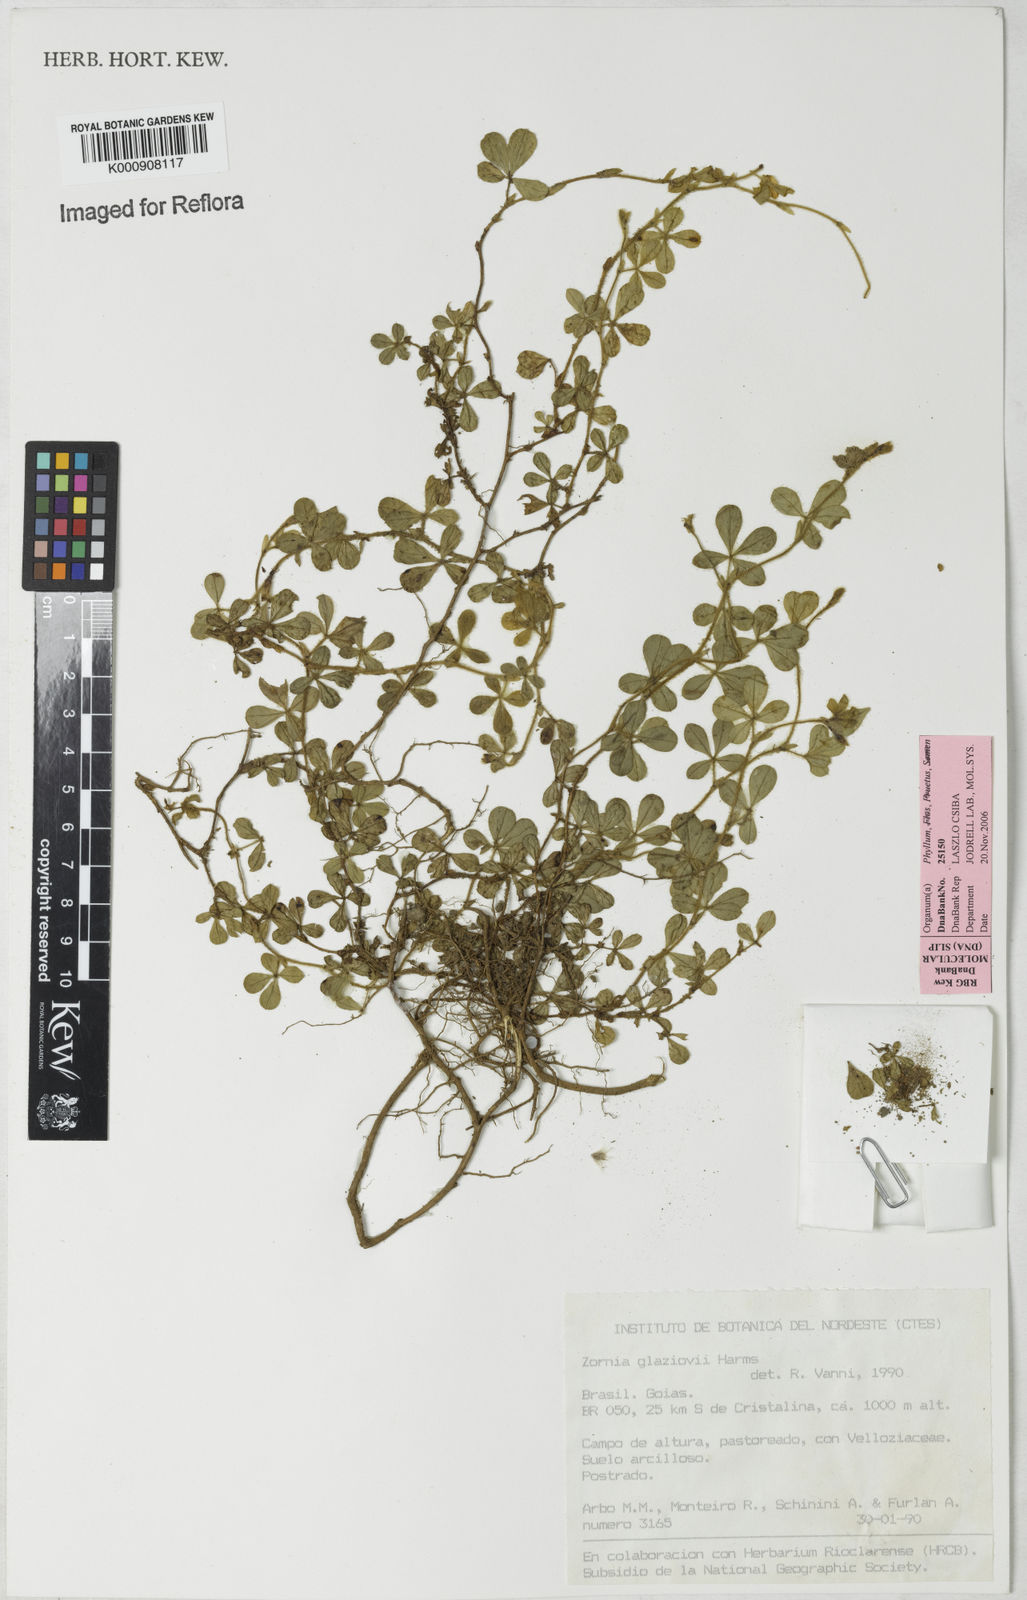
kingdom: Plantae
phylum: Tracheophyta
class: Magnoliopsida
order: Fabales
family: Fabaceae
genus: Zornia
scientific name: Zornia glaziovii
